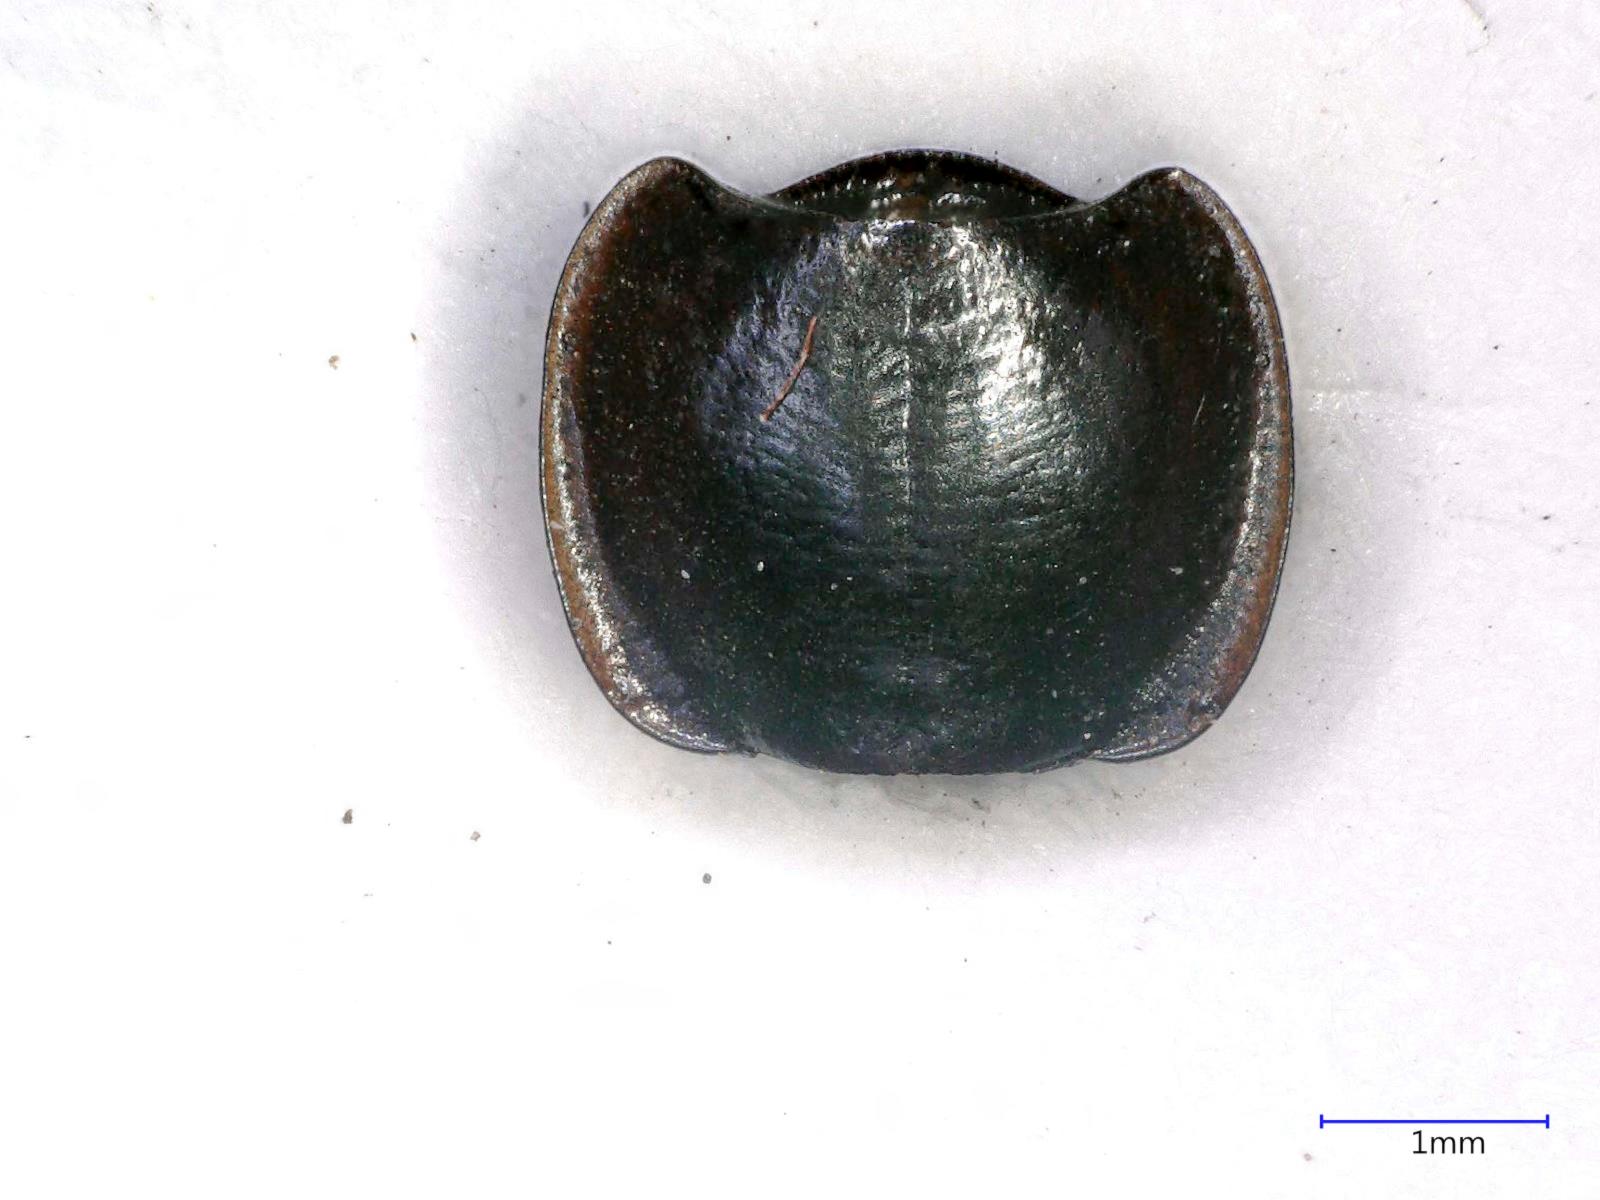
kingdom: Animalia
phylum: Arthropoda
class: Insecta
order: Coleoptera
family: Carabidae
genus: Tanystoma
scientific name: Tanystoma maculicolle
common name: Tule beetle
